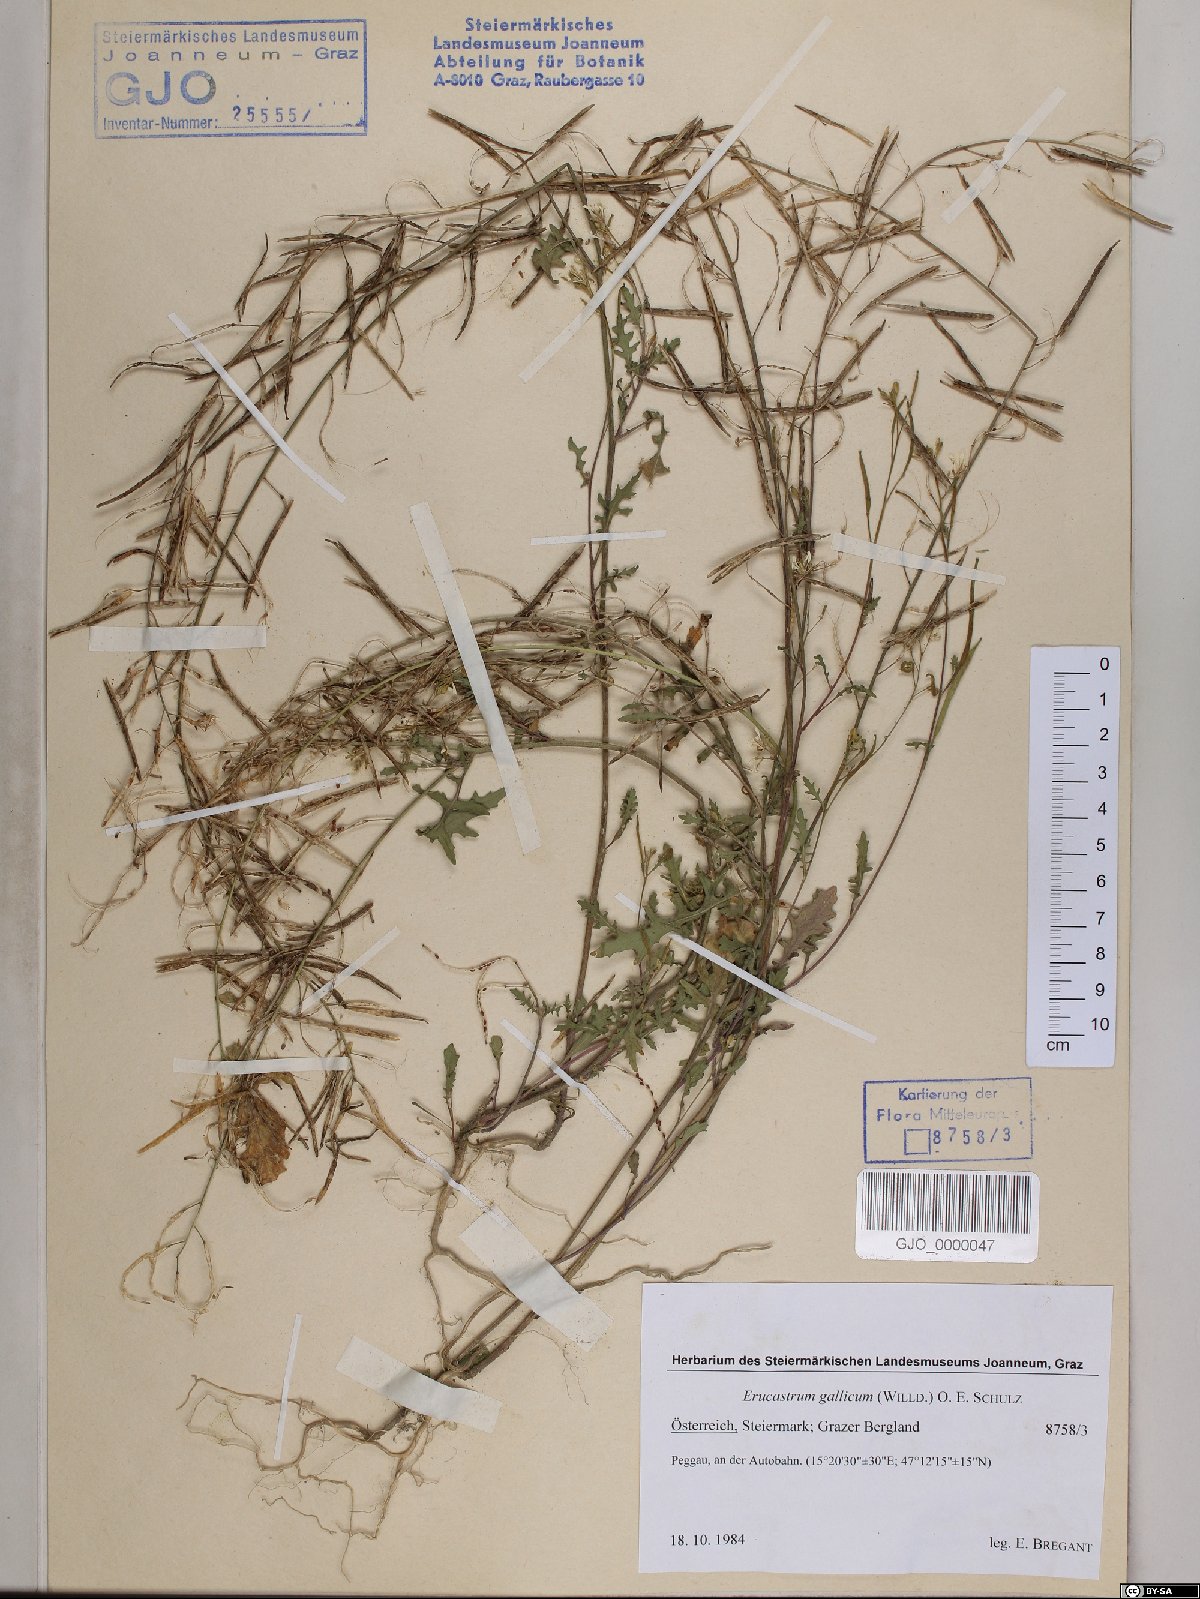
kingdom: Plantae
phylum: Tracheophyta
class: Magnoliopsida
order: Brassicales
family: Brassicaceae
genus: Erucastrum
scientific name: Erucastrum gallicum
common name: Hairy rocket
